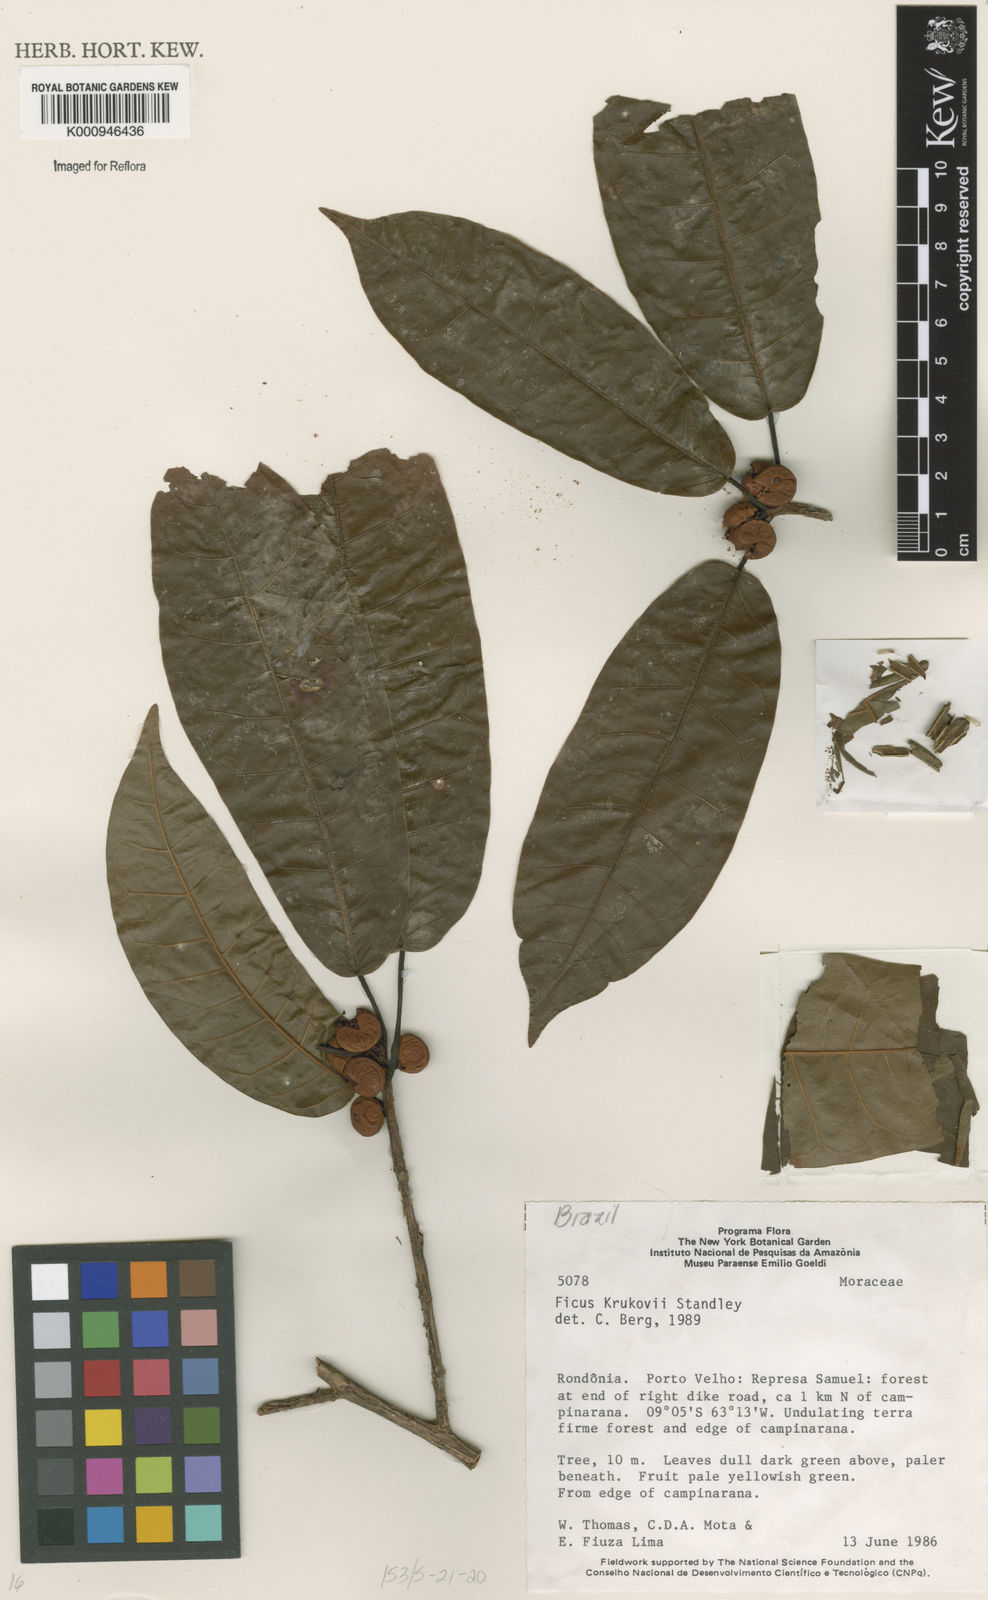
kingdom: Plantae
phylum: Tracheophyta
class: Magnoliopsida
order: Rosales
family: Moraceae
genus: Ficus
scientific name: Ficus krukovii
